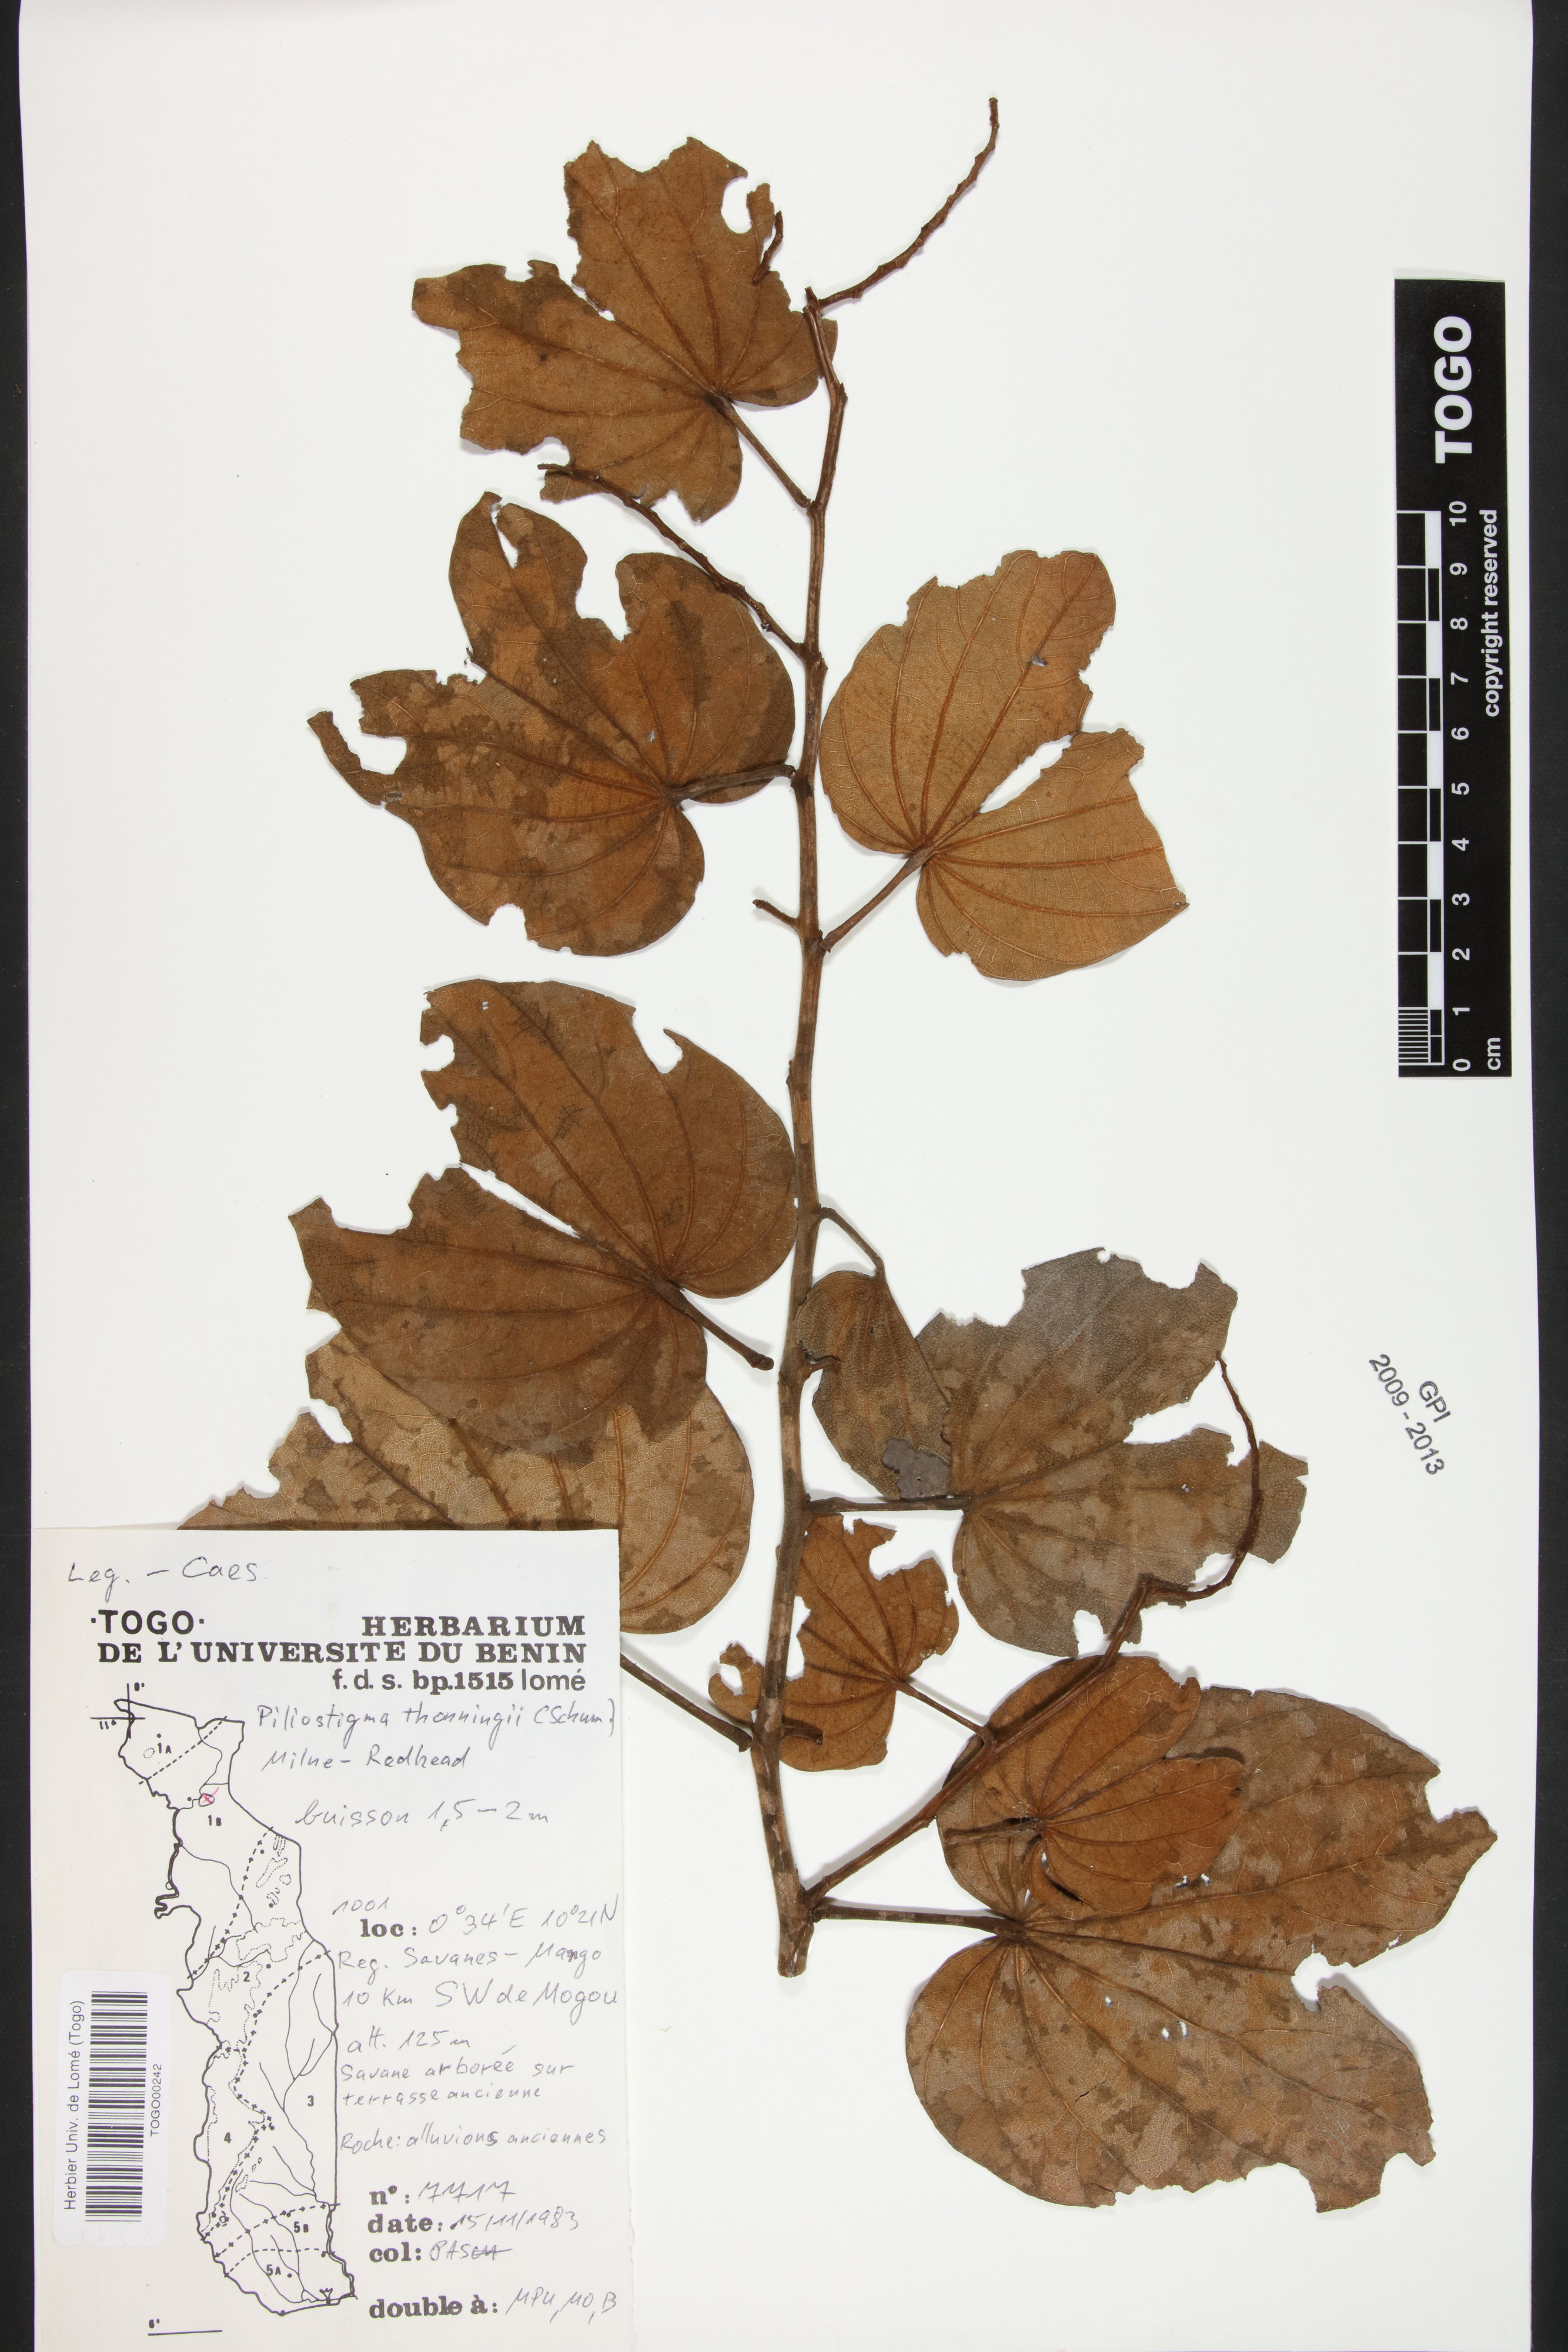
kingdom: Plantae
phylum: Tracheophyta
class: Magnoliopsida
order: Fabales
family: Fabaceae
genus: Piliostigma
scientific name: Piliostigma thonningii
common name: Kao
